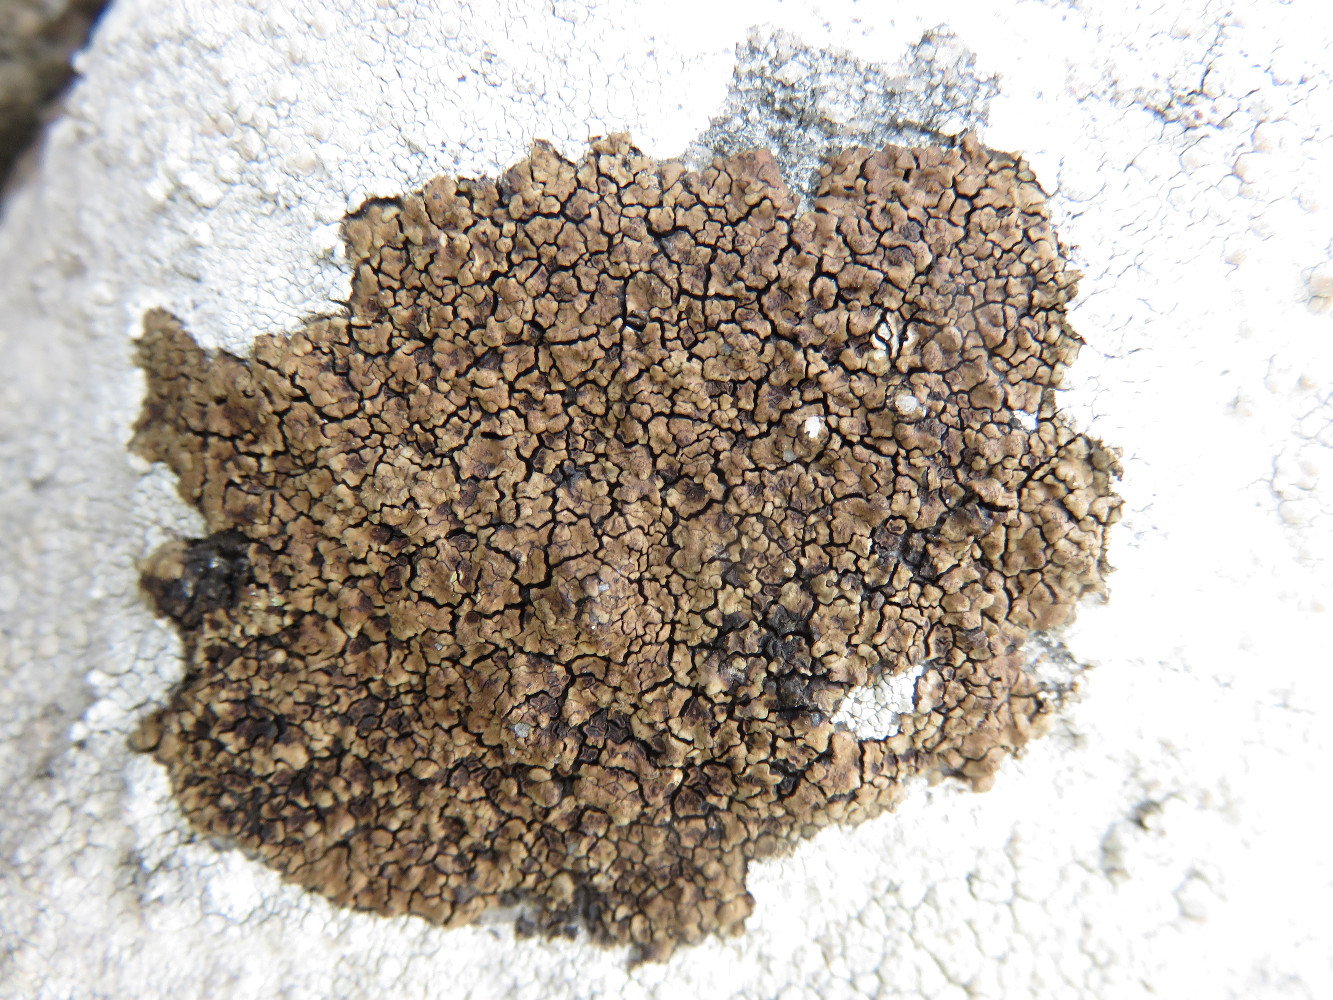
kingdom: Fungi
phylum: Ascomycota
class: Lecanoromycetes
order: Acarosporales
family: Acarosporaceae
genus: Acarospora
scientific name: Acarospora fuscata
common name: brun småsporelav
